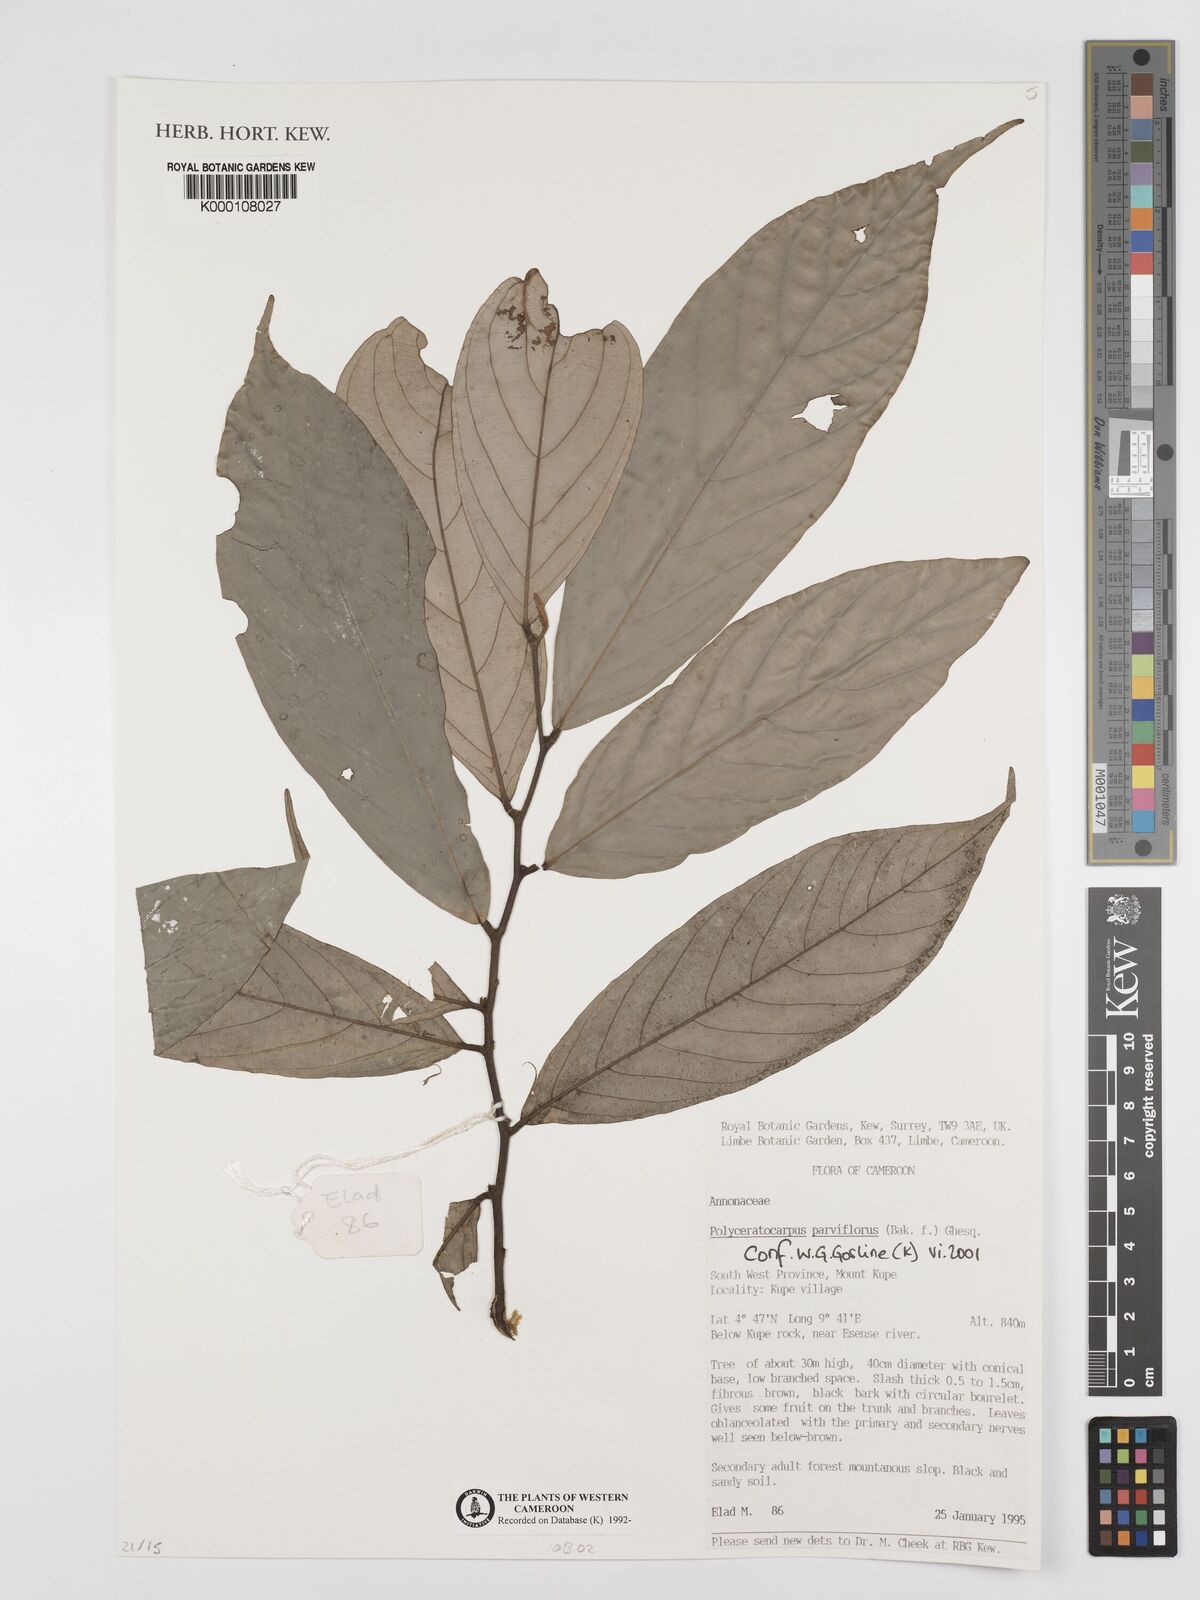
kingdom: Plantae
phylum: Tracheophyta
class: Magnoliopsida
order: Magnoliales
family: Annonaceae
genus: Polyceratocarpus
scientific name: Polyceratocarpus parviflorus
